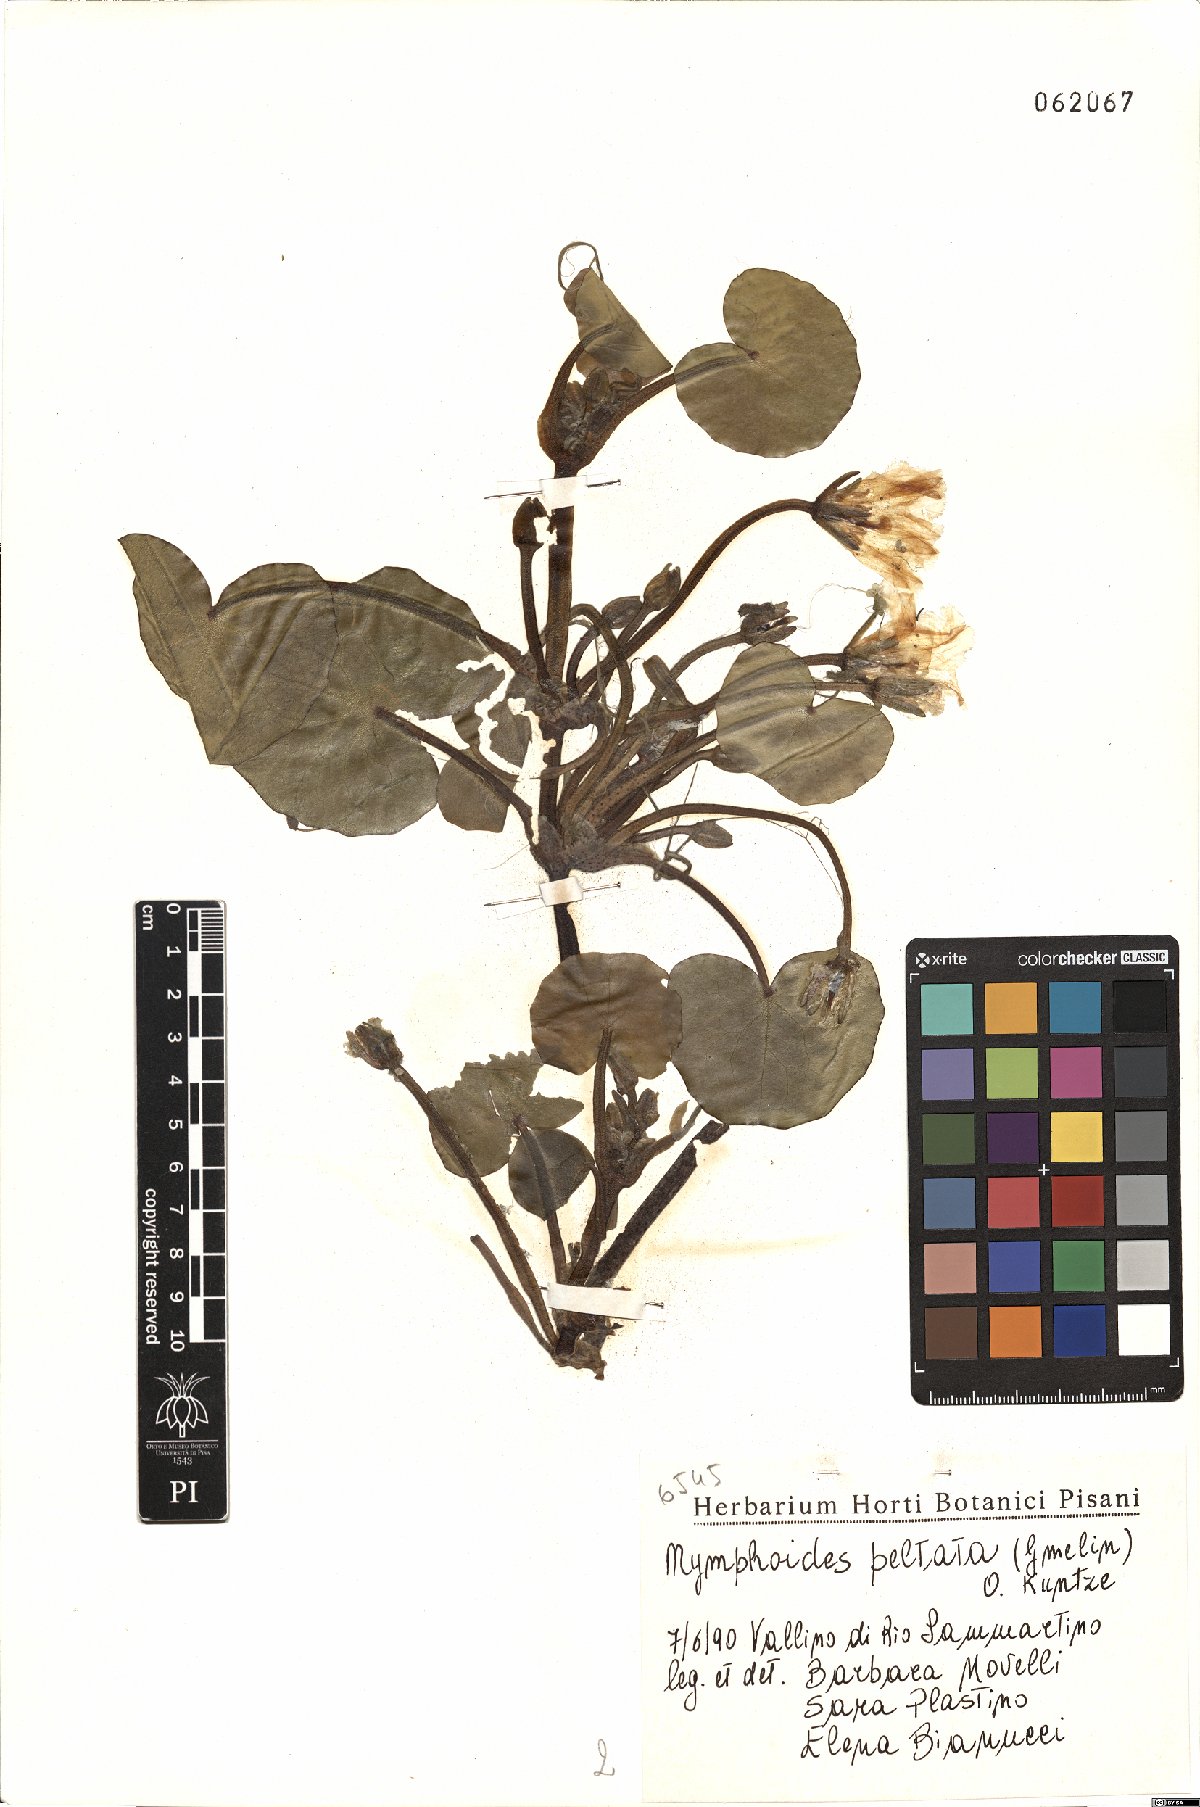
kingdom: Plantae
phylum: Tracheophyta
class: Magnoliopsida
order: Asterales
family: Menyanthaceae
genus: Nymphoides
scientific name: Nymphoides peltata
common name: Fringed water-lily
